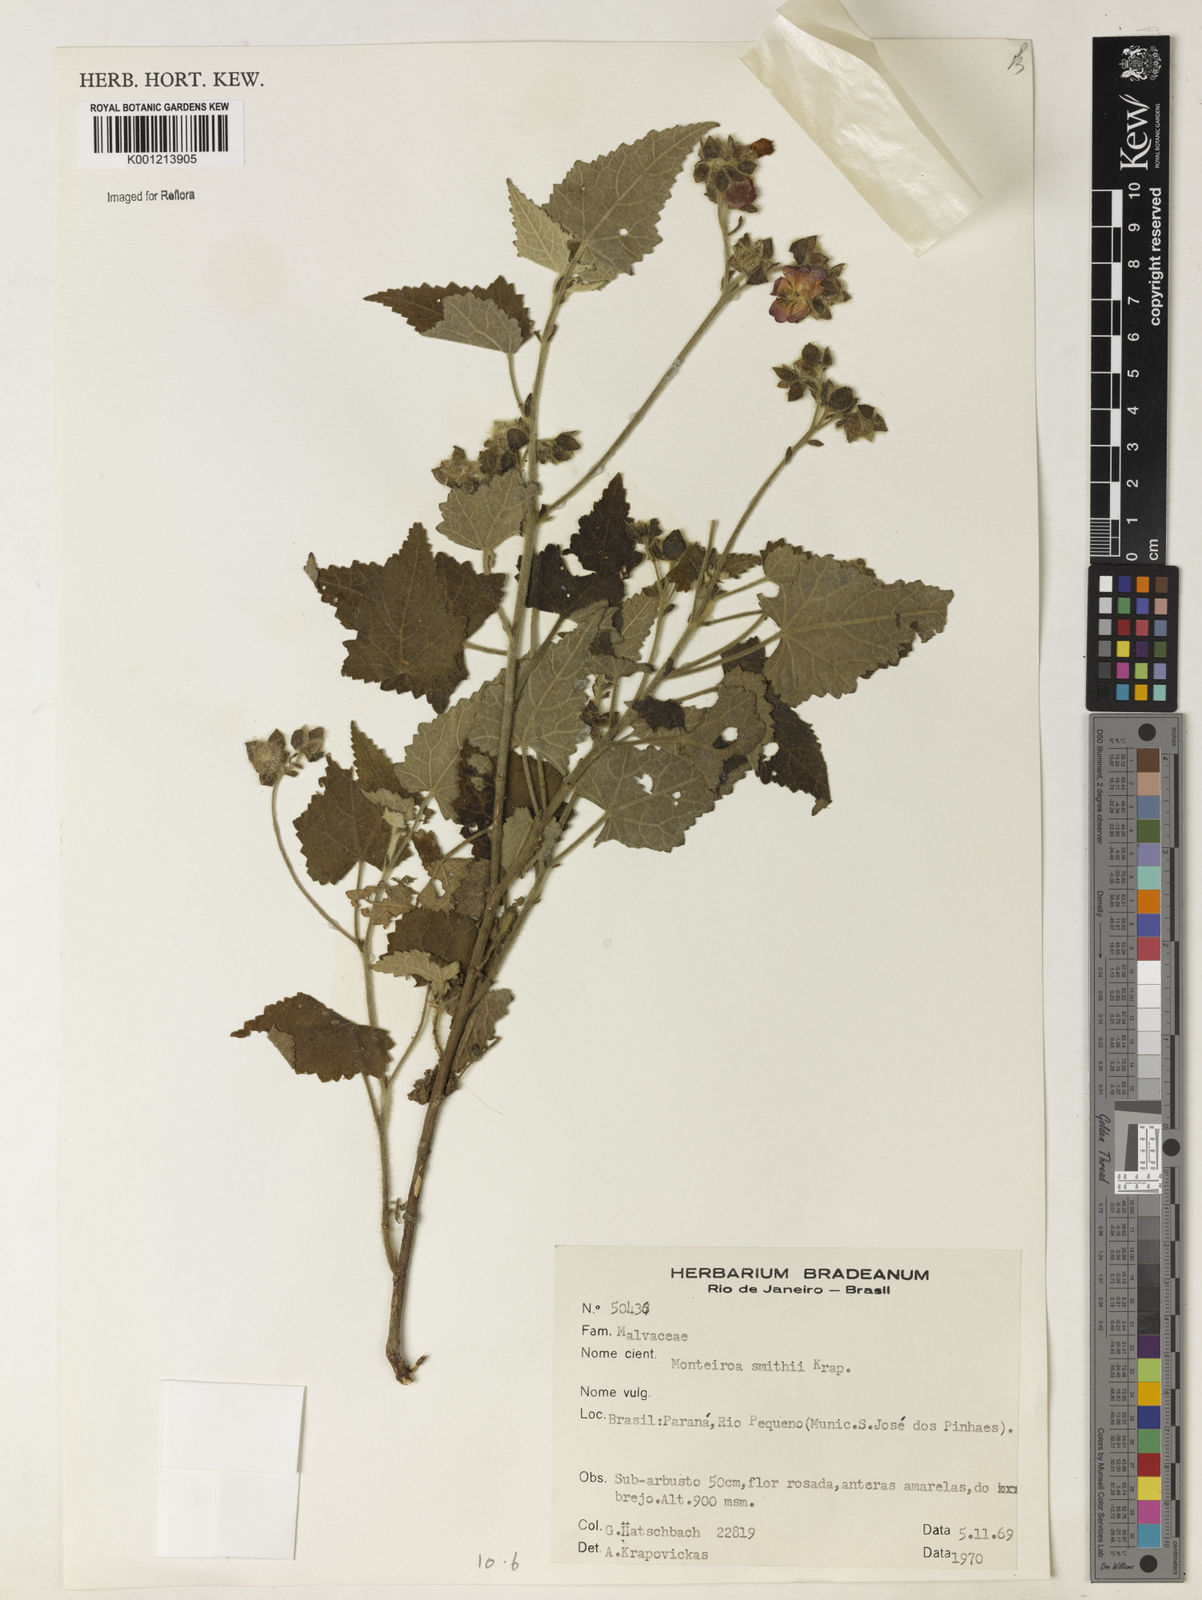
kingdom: Plantae
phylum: Tracheophyta
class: Magnoliopsida
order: Malvales
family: Malvaceae
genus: Monteiroa
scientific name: Monteiroa smithii
